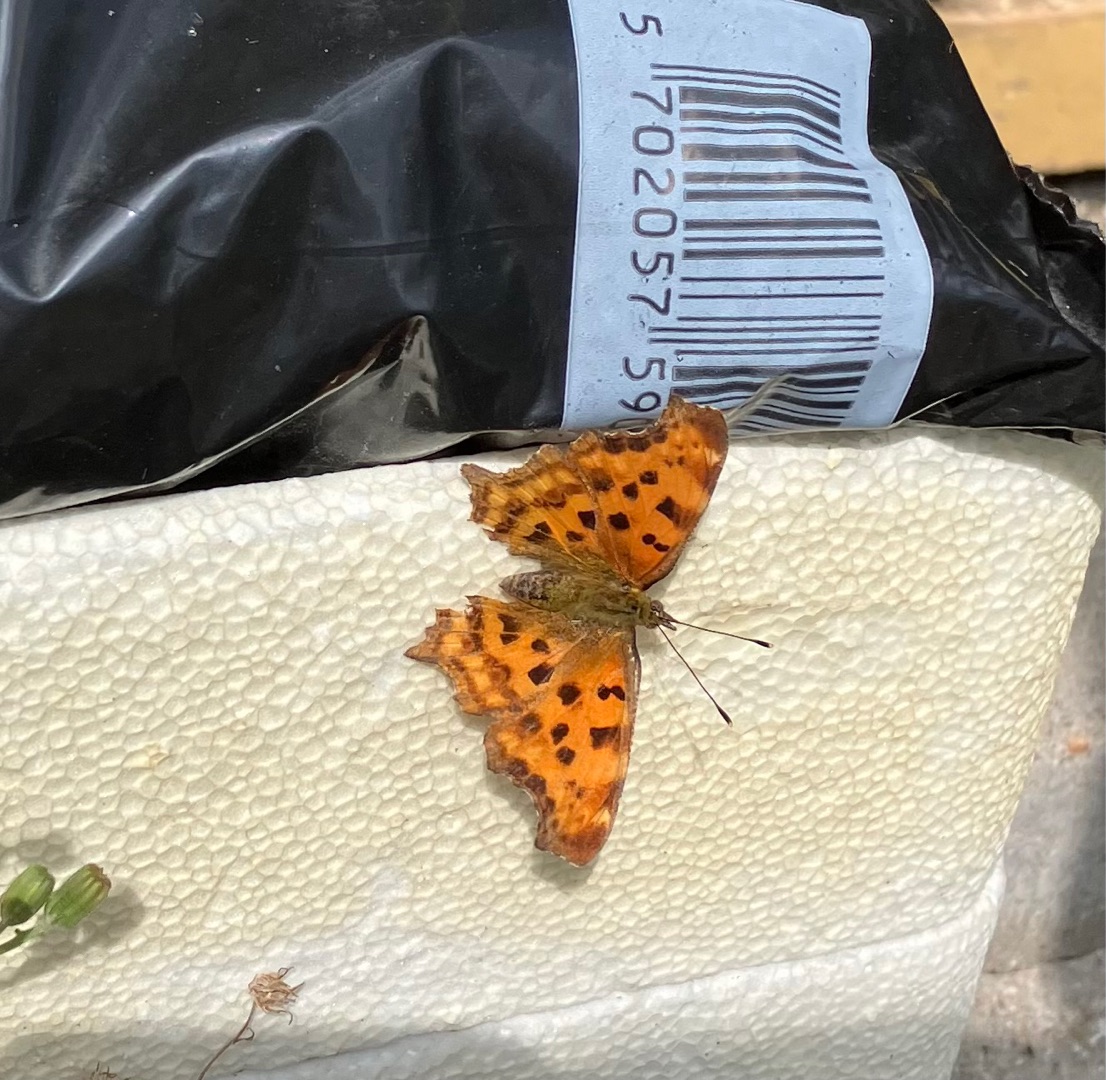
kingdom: Animalia
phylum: Arthropoda
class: Insecta
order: Lepidoptera
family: Nymphalidae
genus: Polygonia
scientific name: Polygonia c-album
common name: Det hvide C
